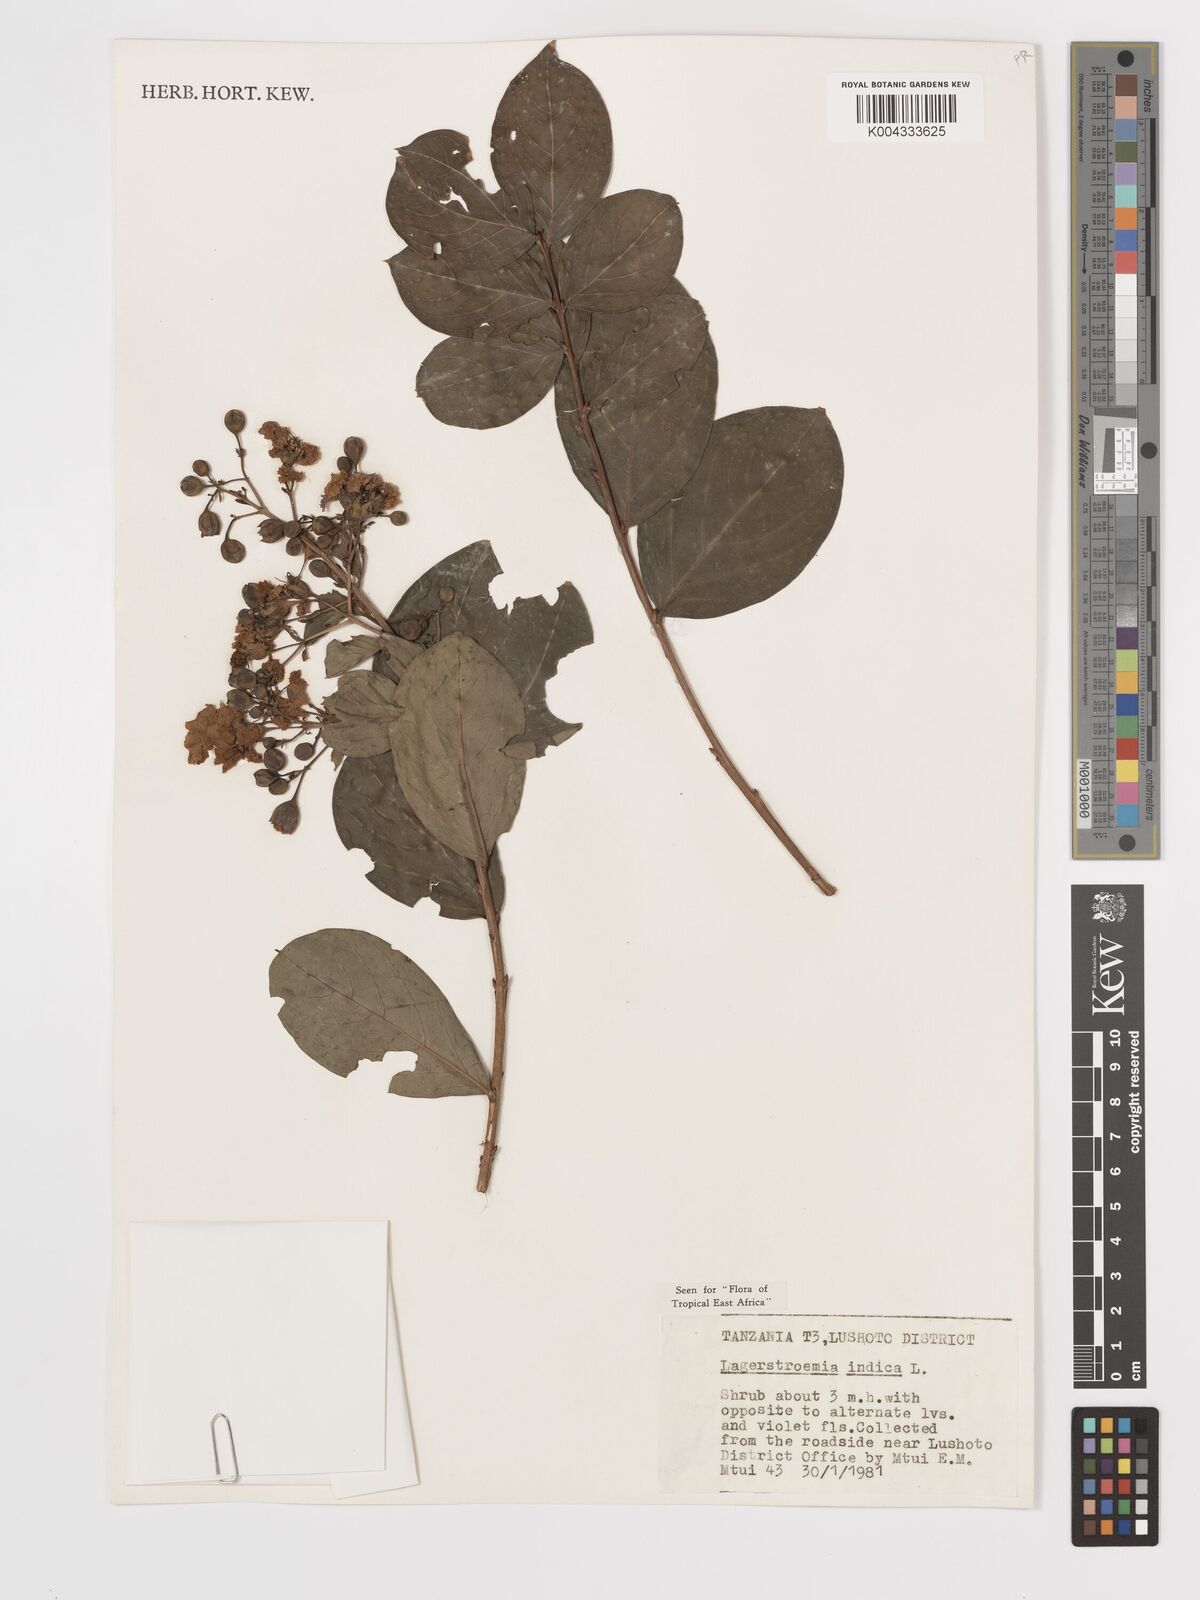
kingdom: Plantae
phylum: Tracheophyta
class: Magnoliopsida
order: Myrtales
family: Lythraceae
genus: Lagerstroemia
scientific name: Lagerstroemia indica
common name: Crape-myrtle
